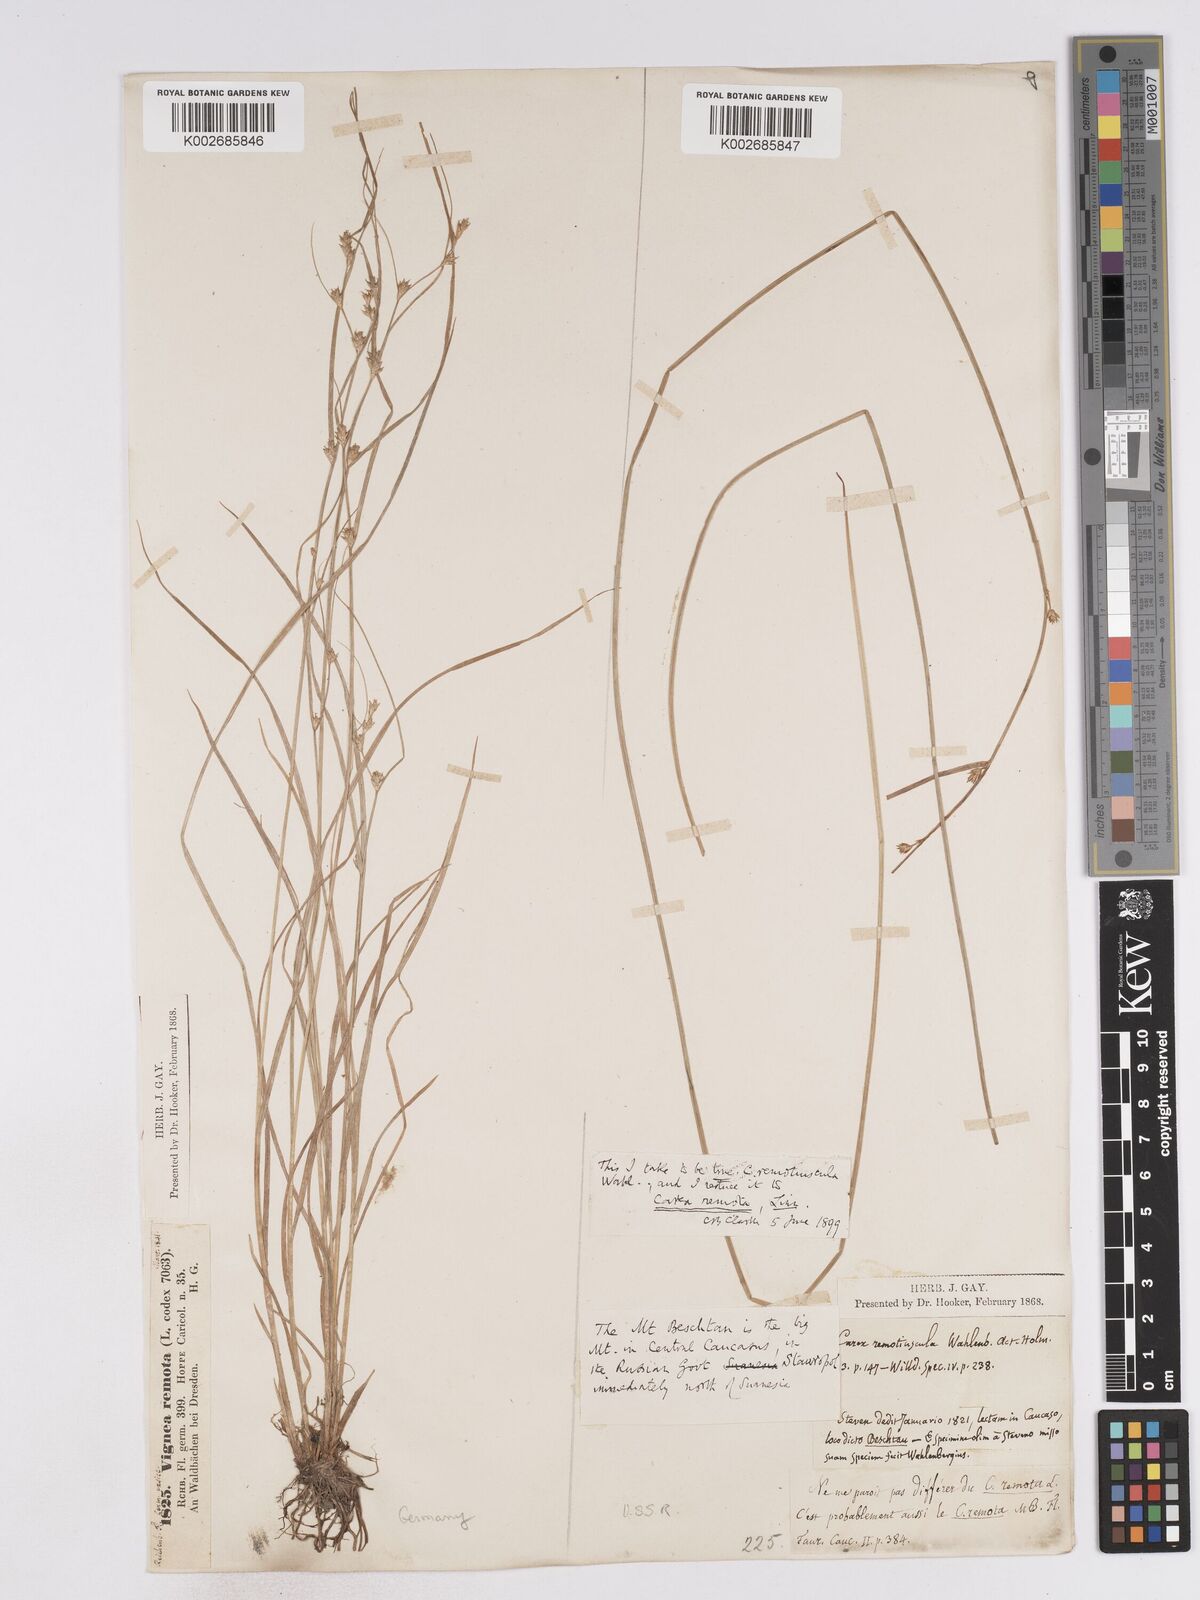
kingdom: Plantae
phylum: Tracheophyta
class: Liliopsida
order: Poales
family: Cyperaceae
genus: Carex
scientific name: Carex remotiuscula
